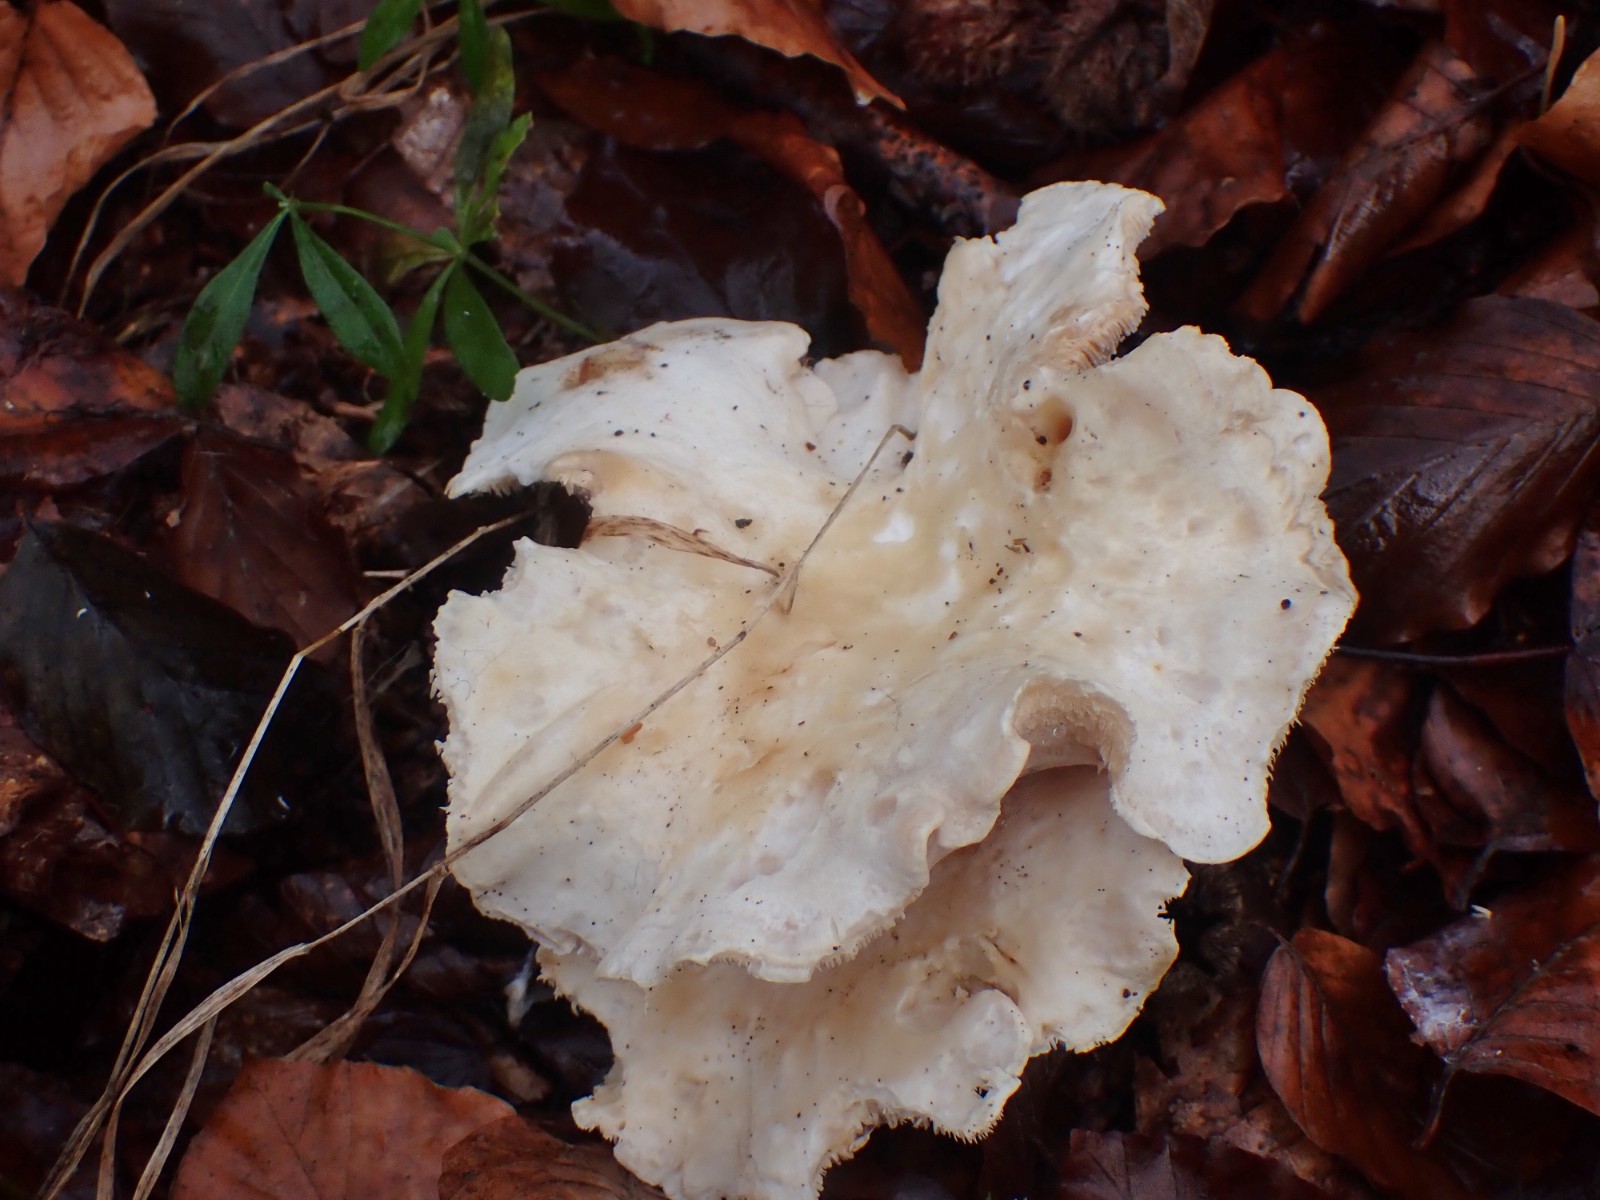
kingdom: Fungi
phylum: Basidiomycota
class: Agaricomycetes
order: Cantharellales
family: Hydnaceae
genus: Hydnum
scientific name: Hydnum
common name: pigsvamp
